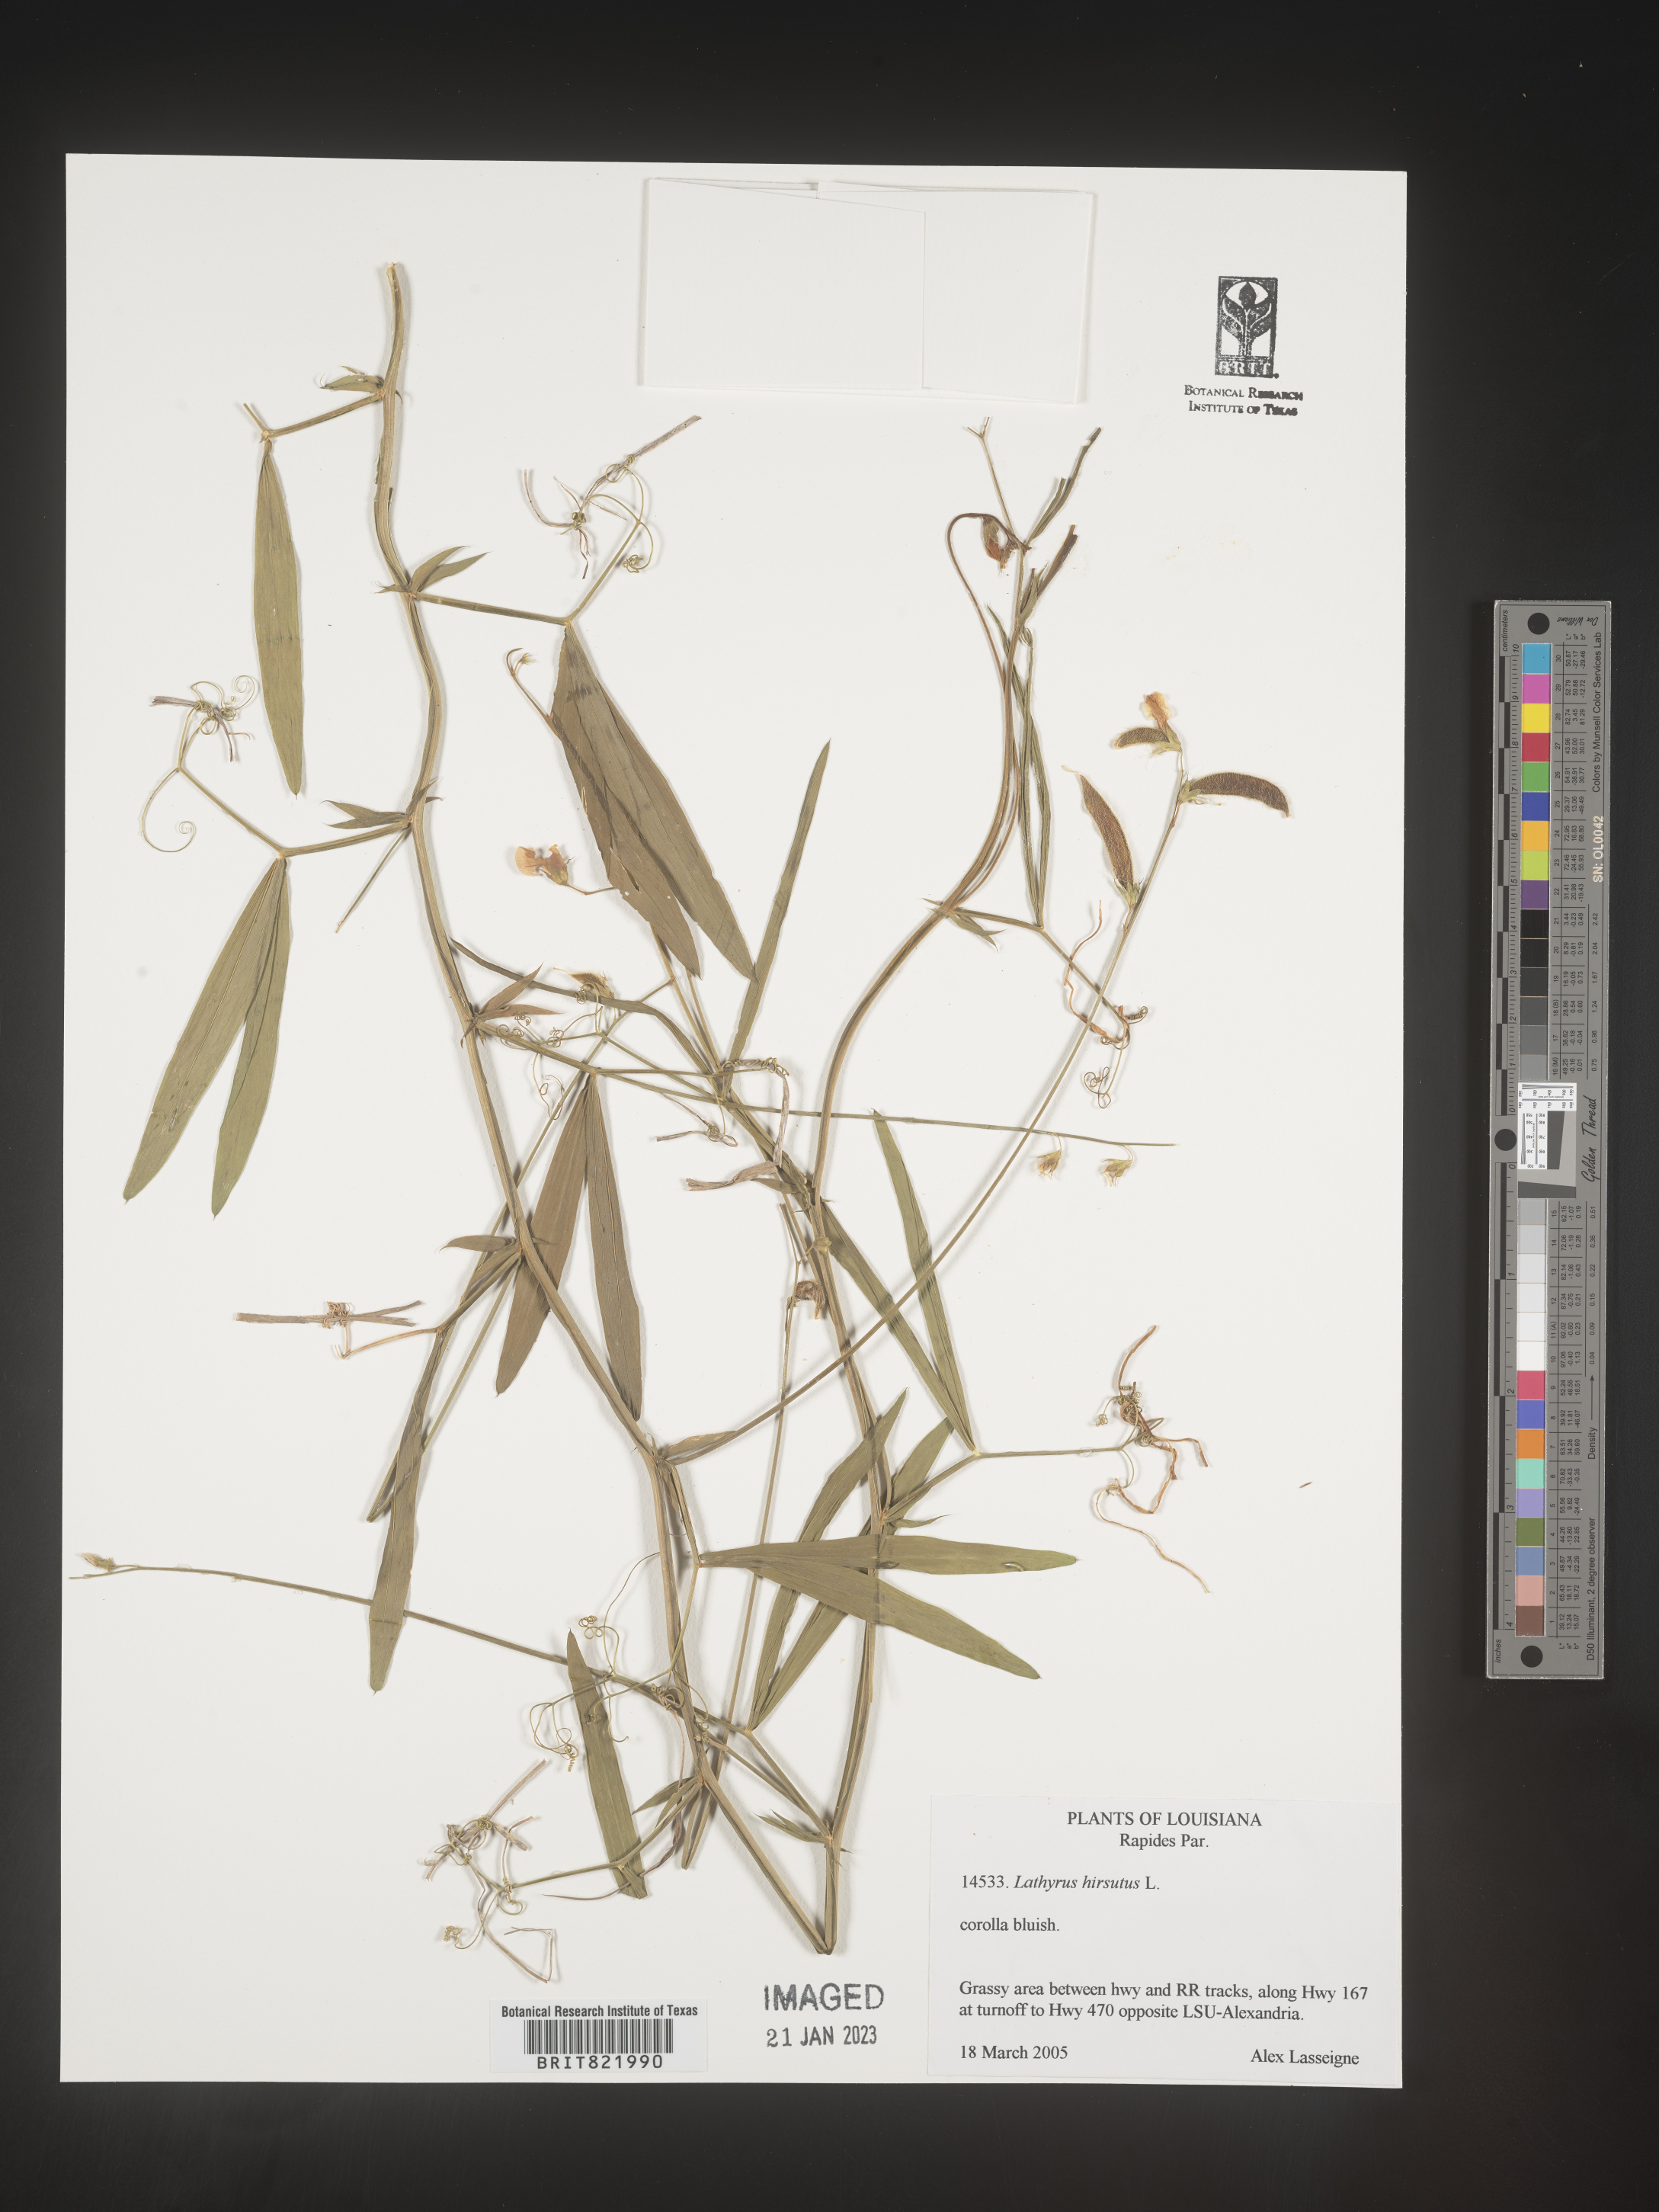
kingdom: Plantae
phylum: Tracheophyta
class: Magnoliopsida
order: Fabales
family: Fabaceae
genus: Lathyrus
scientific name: Lathyrus hirsutus
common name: Hairy vetchling
